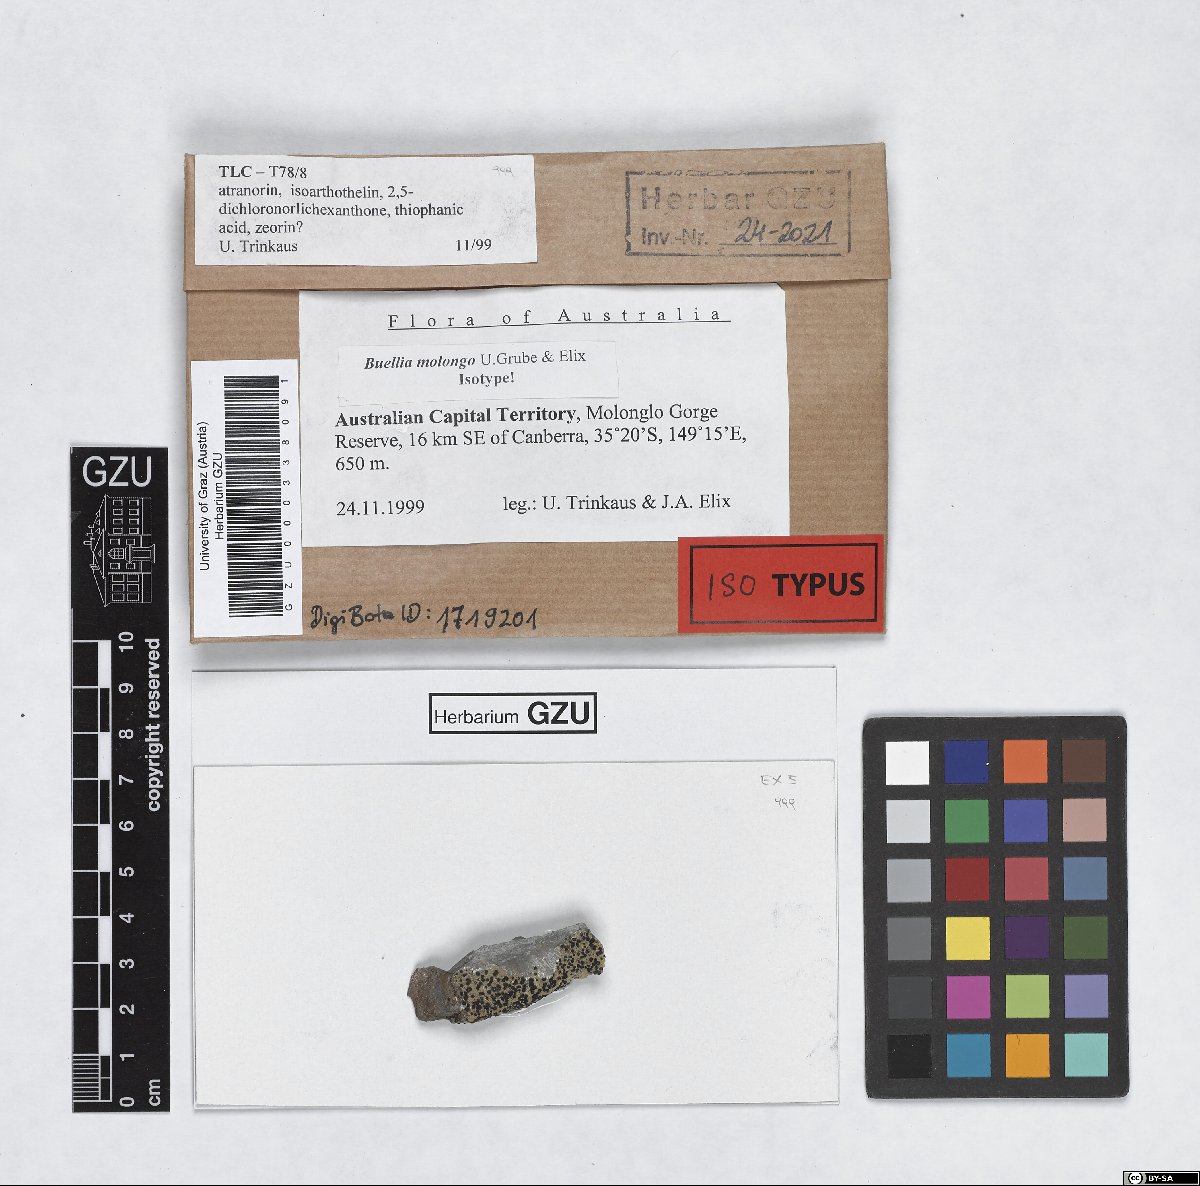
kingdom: Fungi
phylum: Ascomycota
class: Lecanoromycetes
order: Caliciales
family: Caliciaceae
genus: Buellia
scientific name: Buellia molonglo
